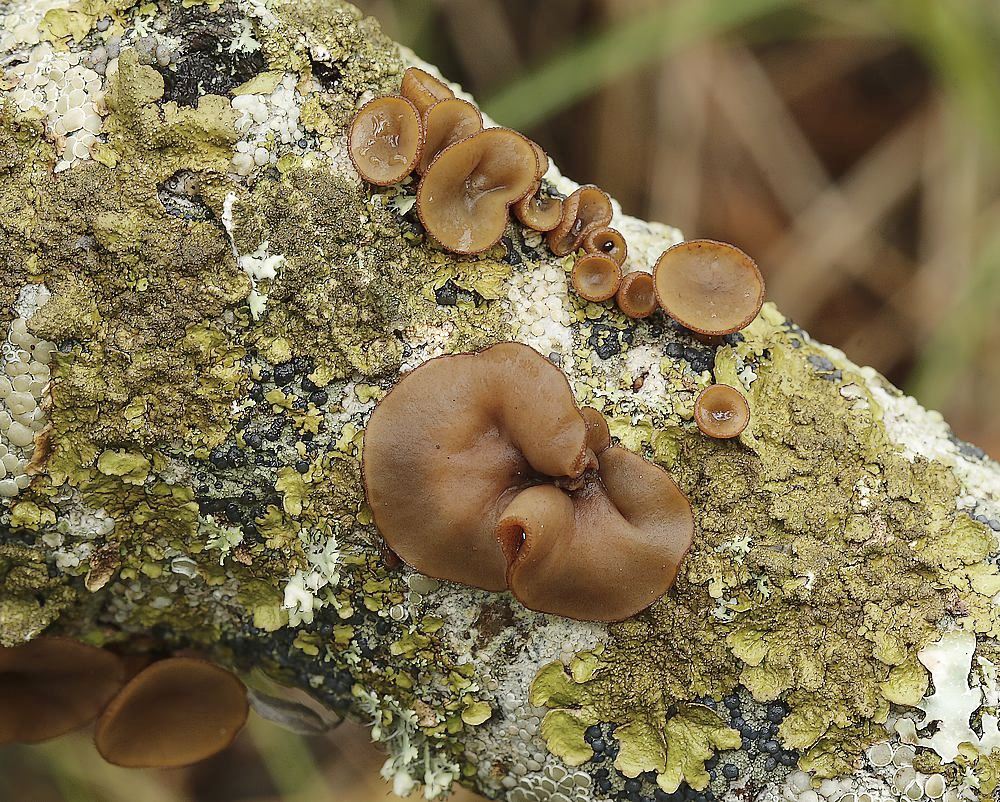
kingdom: Fungi
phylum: Ascomycota
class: Leotiomycetes
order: Helotiales
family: Rutstroemiaceae
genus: Rutstroemia
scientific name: Rutstroemia firma
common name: gren-brunskive
